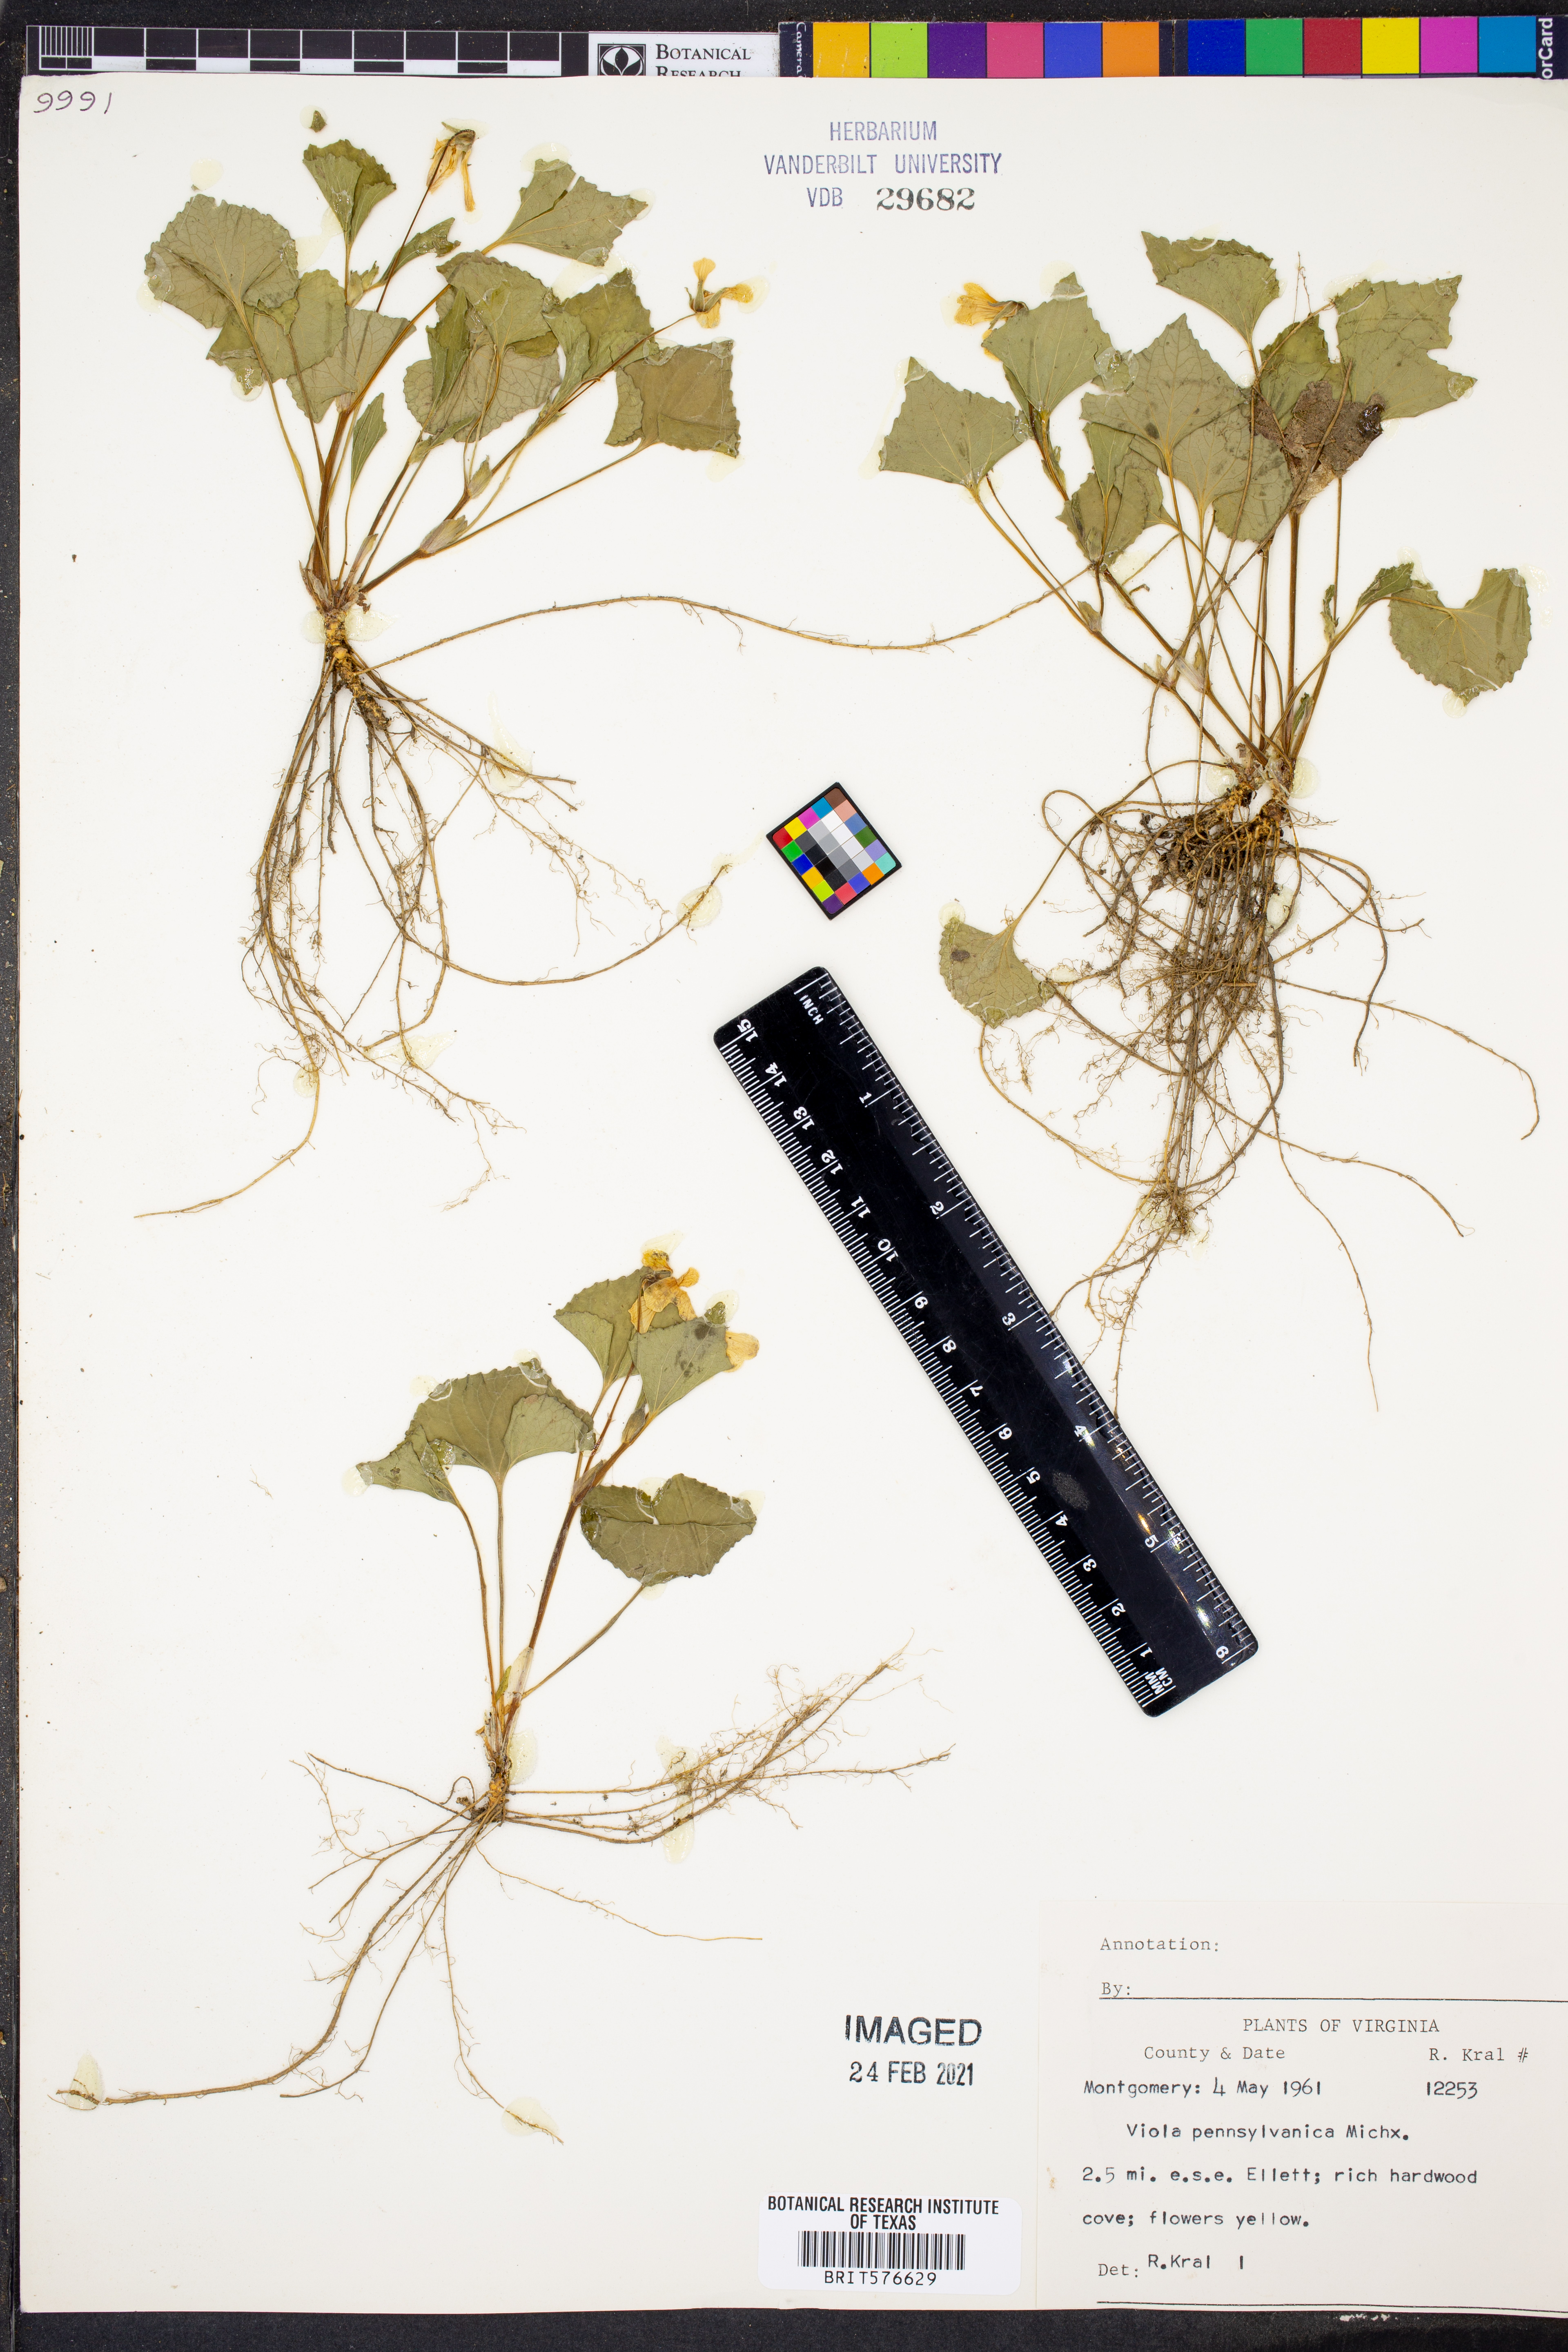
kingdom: Plantae
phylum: Tracheophyta
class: Magnoliopsida
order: Malpighiales
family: Violaceae
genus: Viola
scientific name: Viola pubescens
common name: Yellow forest violet
